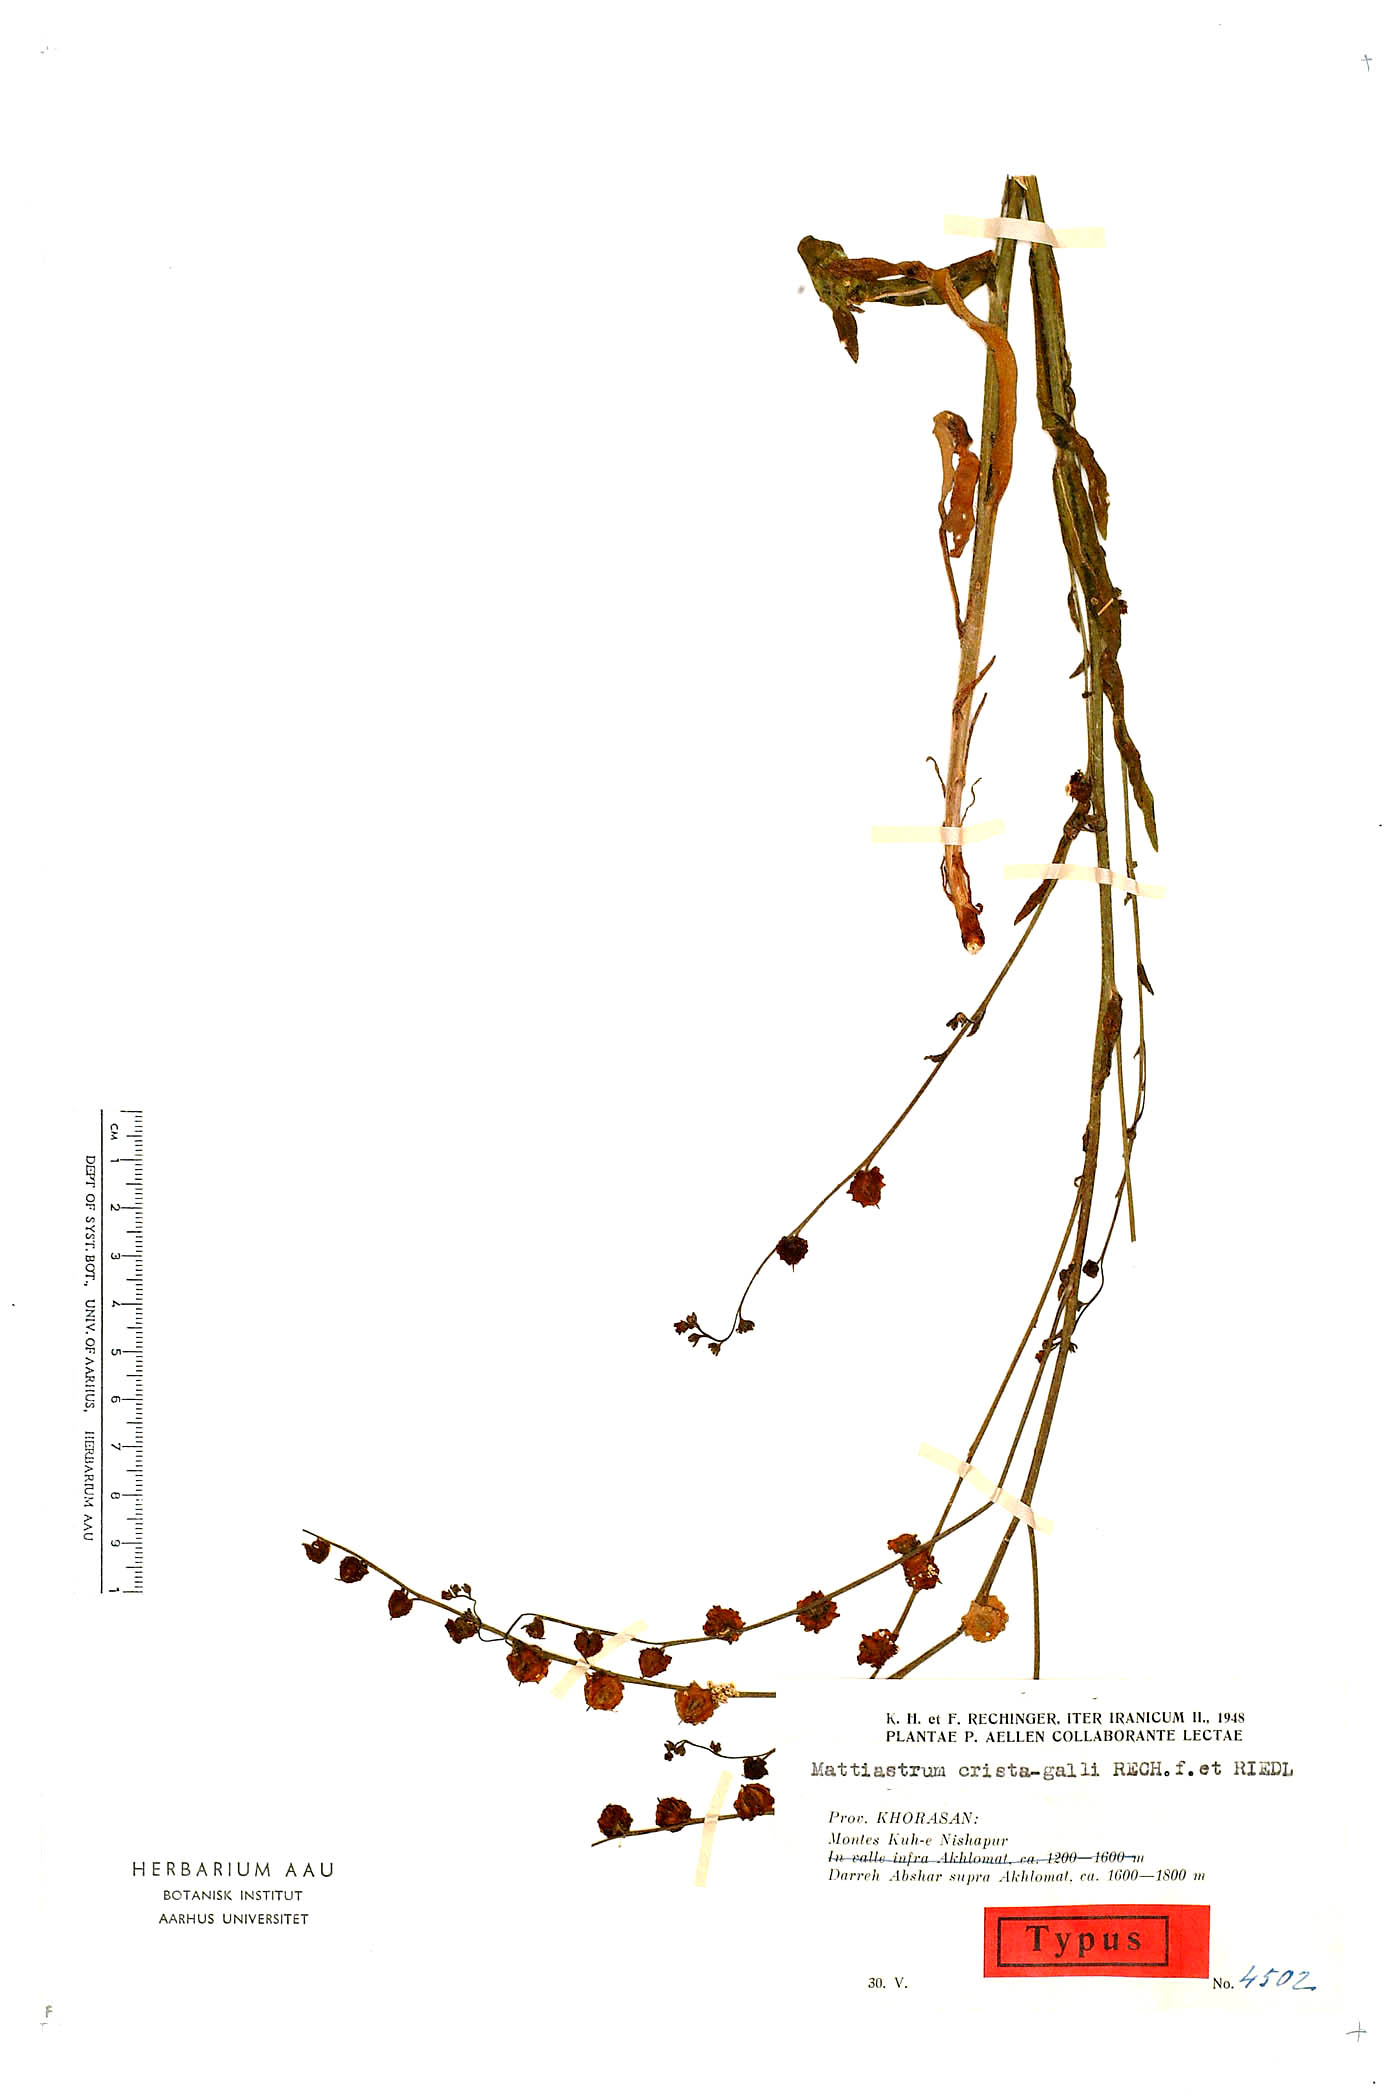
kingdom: Plantae
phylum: Tracheophyta
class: Magnoliopsida
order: Boraginales
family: Boraginaceae
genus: Paracaryum
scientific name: Paracaryum crista-galli
